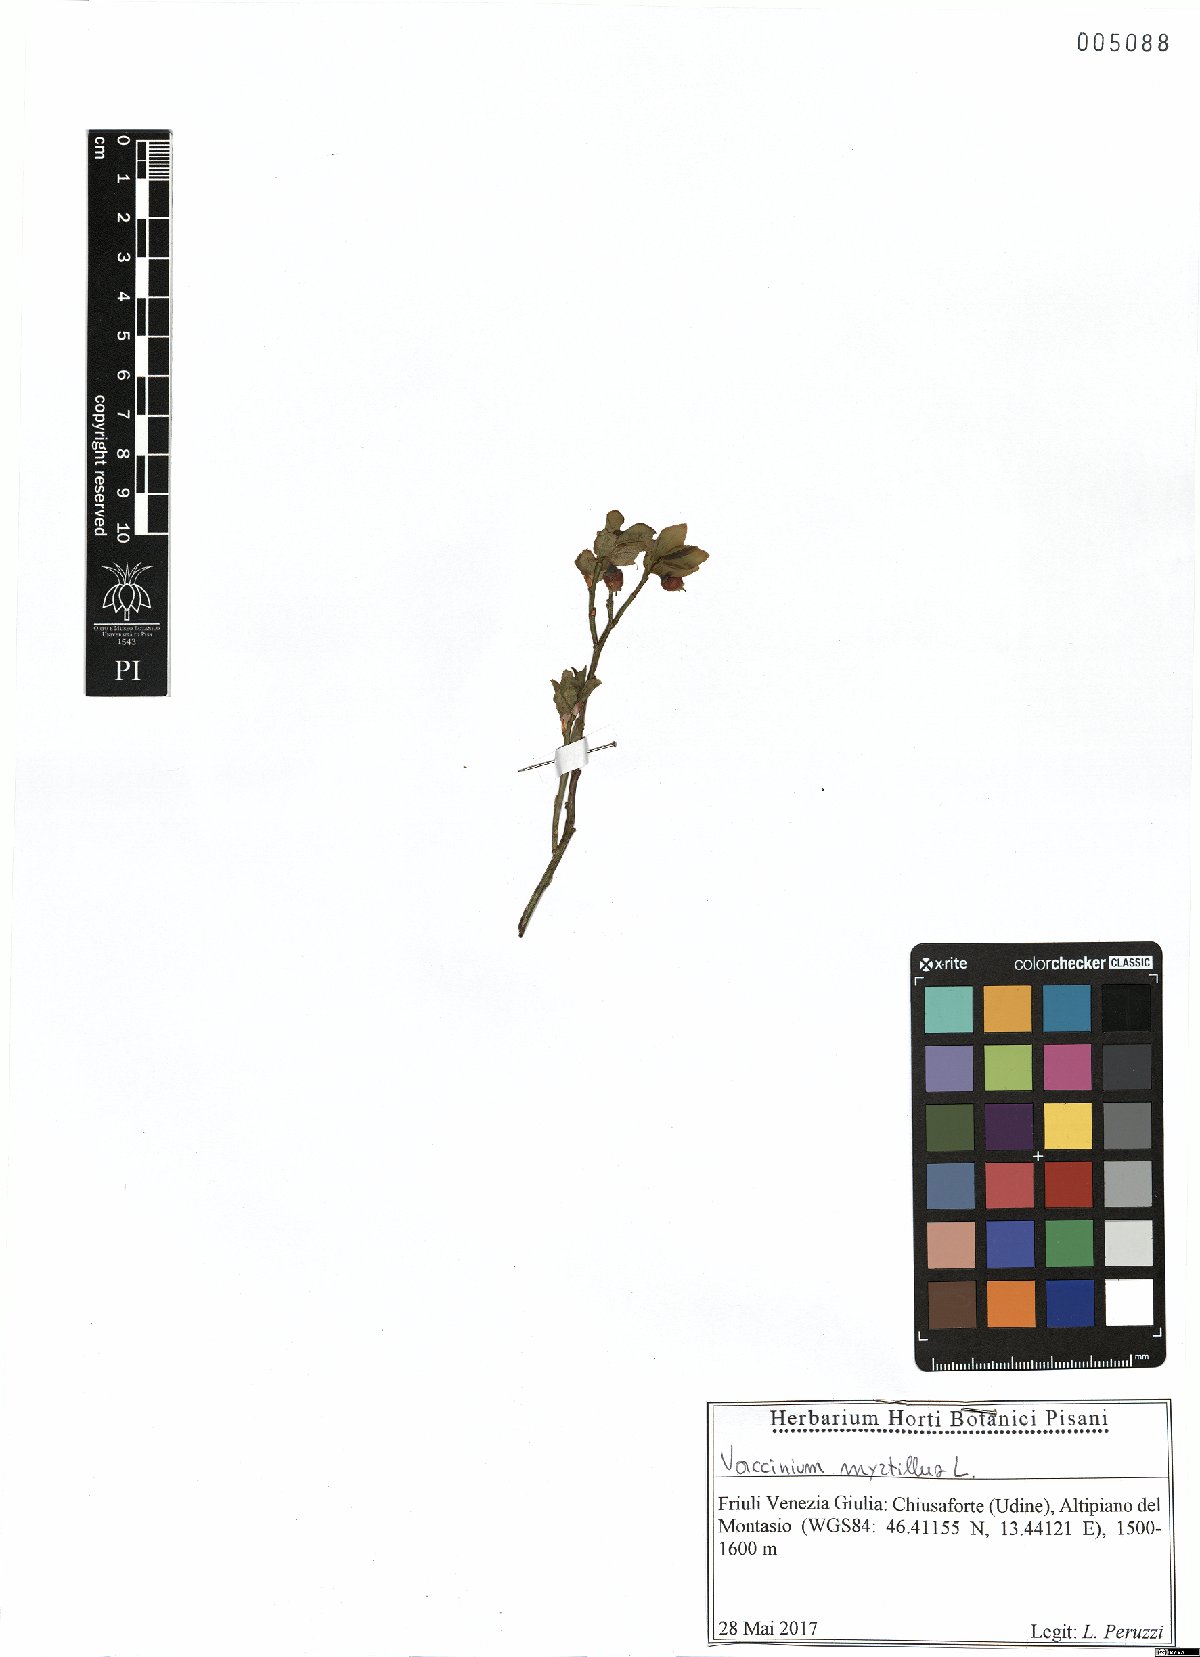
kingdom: Plantae
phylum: Tracheophyta
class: Magnoliopsida
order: Ericales
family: Ericaceae
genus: Vaccinium
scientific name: Vaccinium myrtillus
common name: Bilberry
